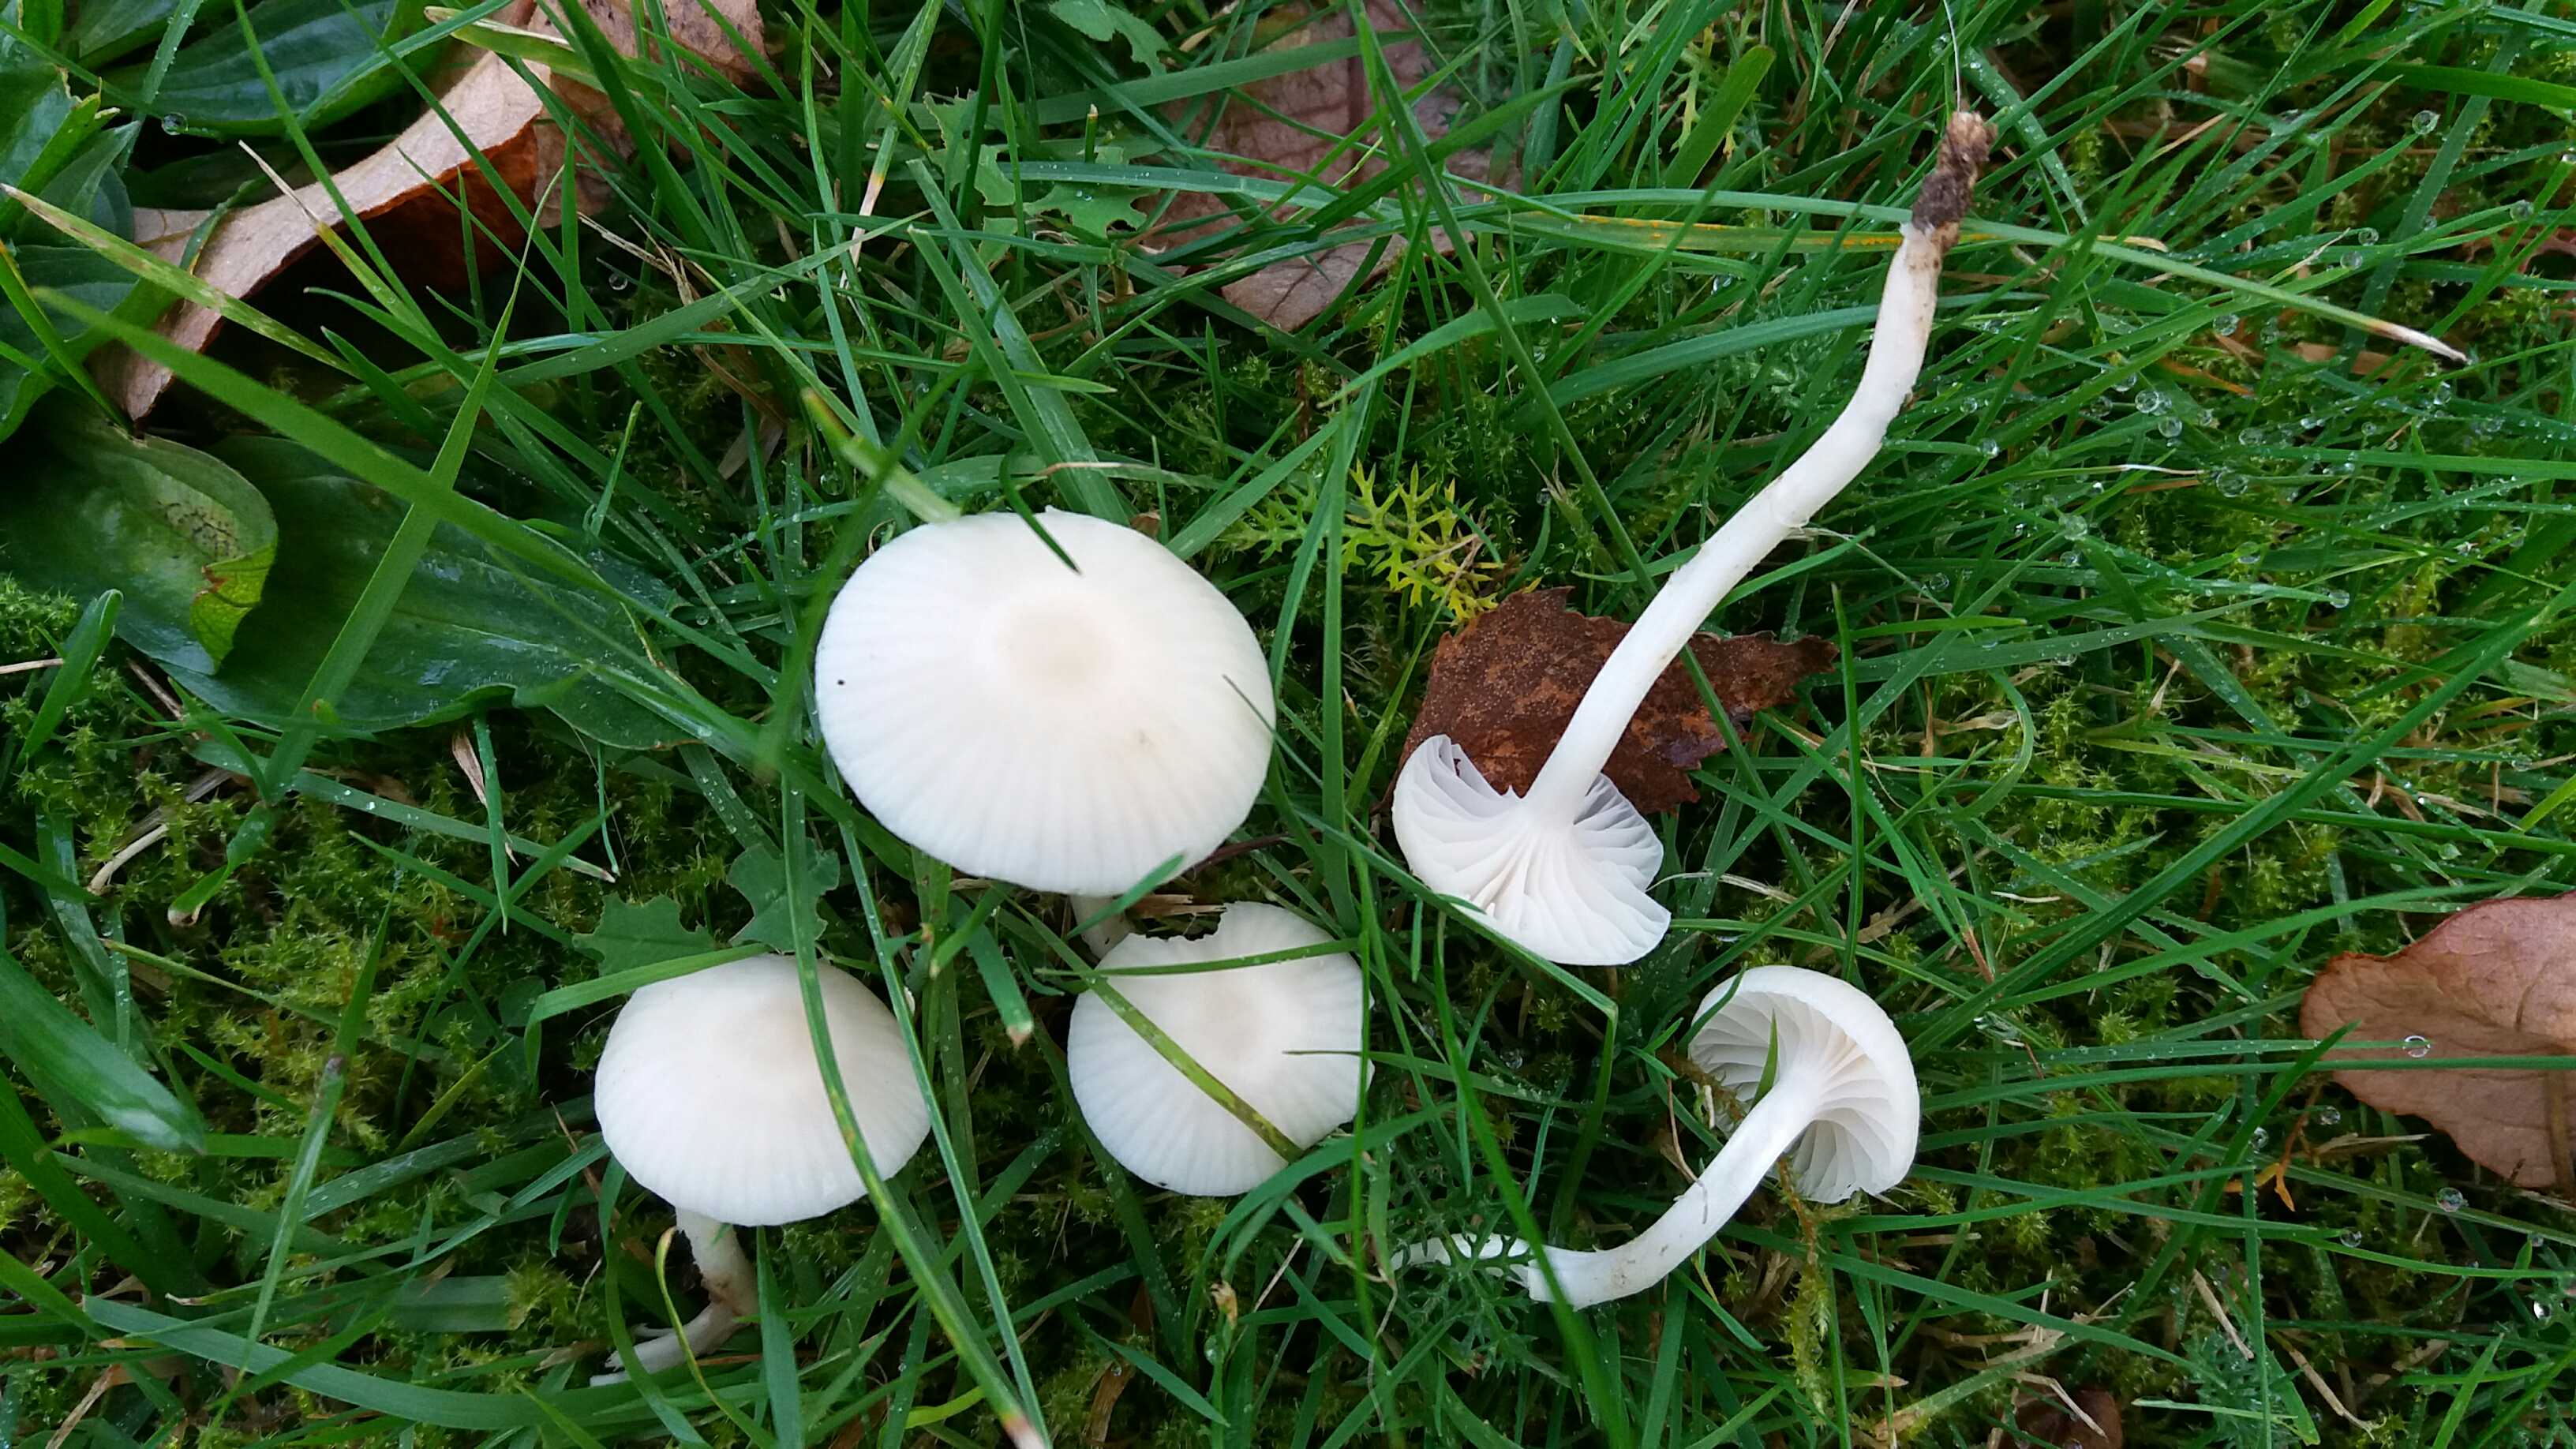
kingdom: Fungi
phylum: Basidiomycota
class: Agaricomycetes
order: Agaricales
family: Hygrophoraceae
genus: Cuphophyllus
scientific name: Cuphophyllus virgineus
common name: snehvid vokshat
